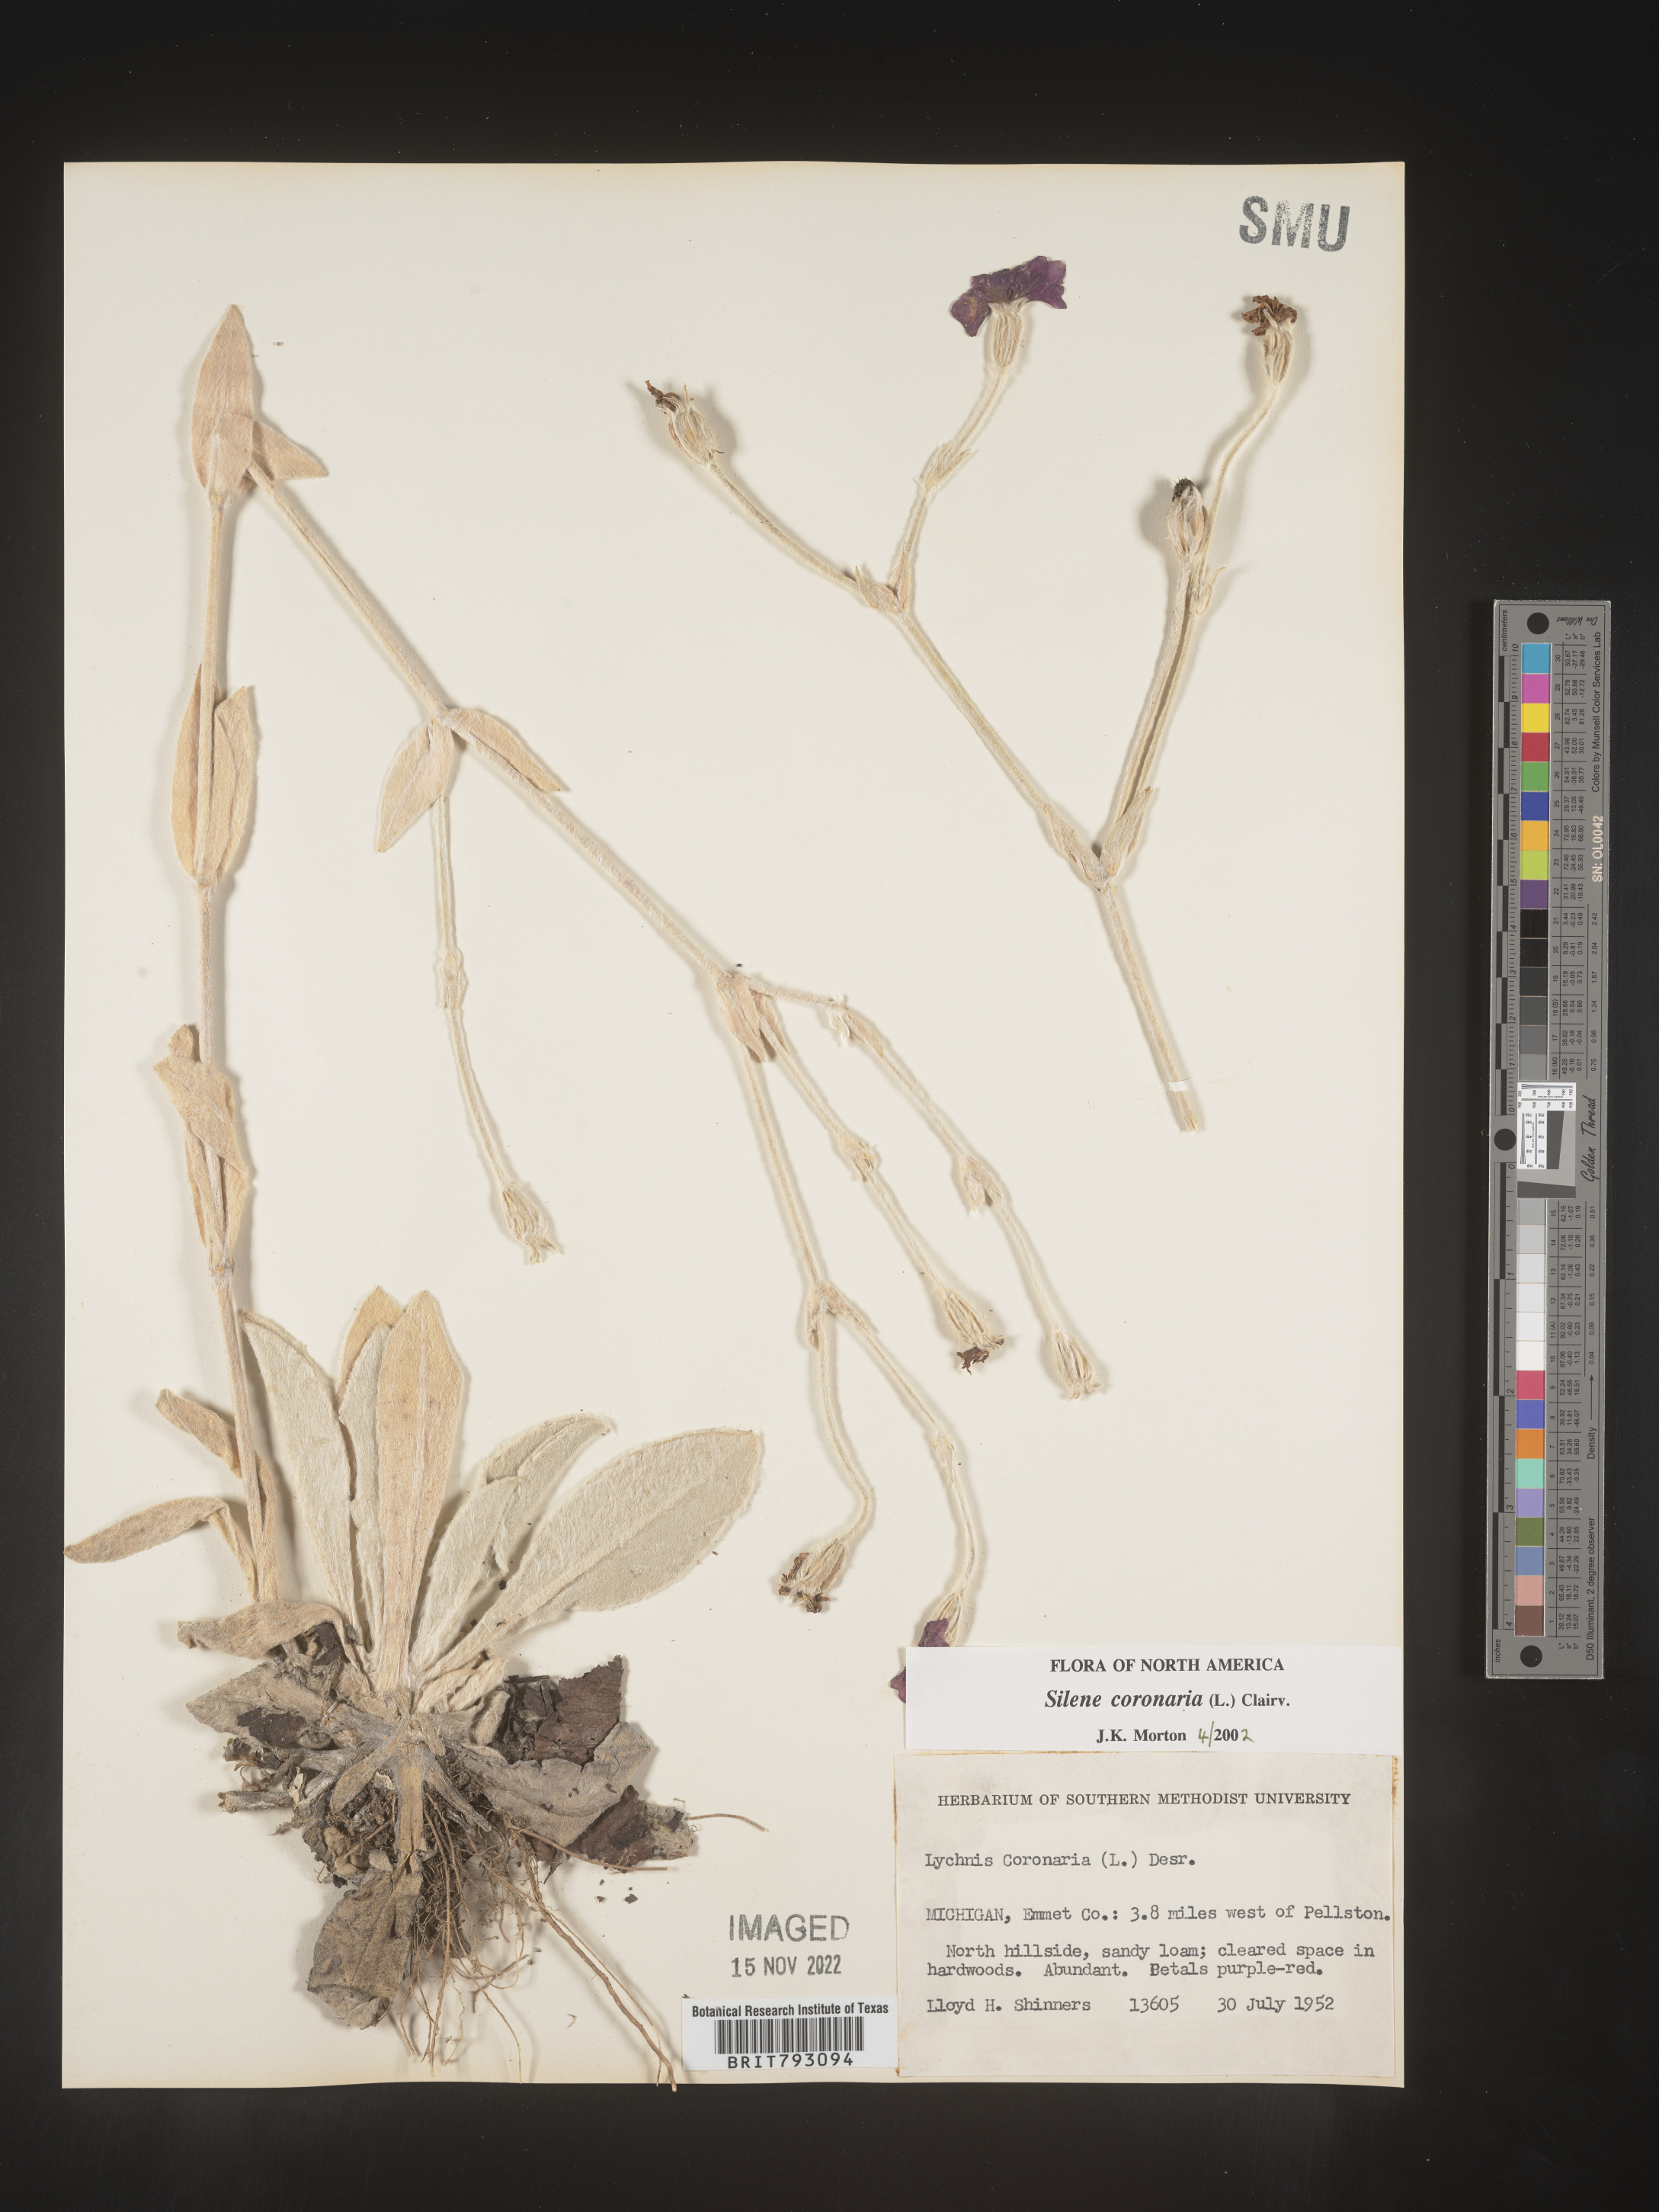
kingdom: Plantae
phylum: Tracheophyta
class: Magnoliopsida
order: Caryophyllales
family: Caryophyllaceae
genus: Silene
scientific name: Silene coronaria
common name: Rose campion
